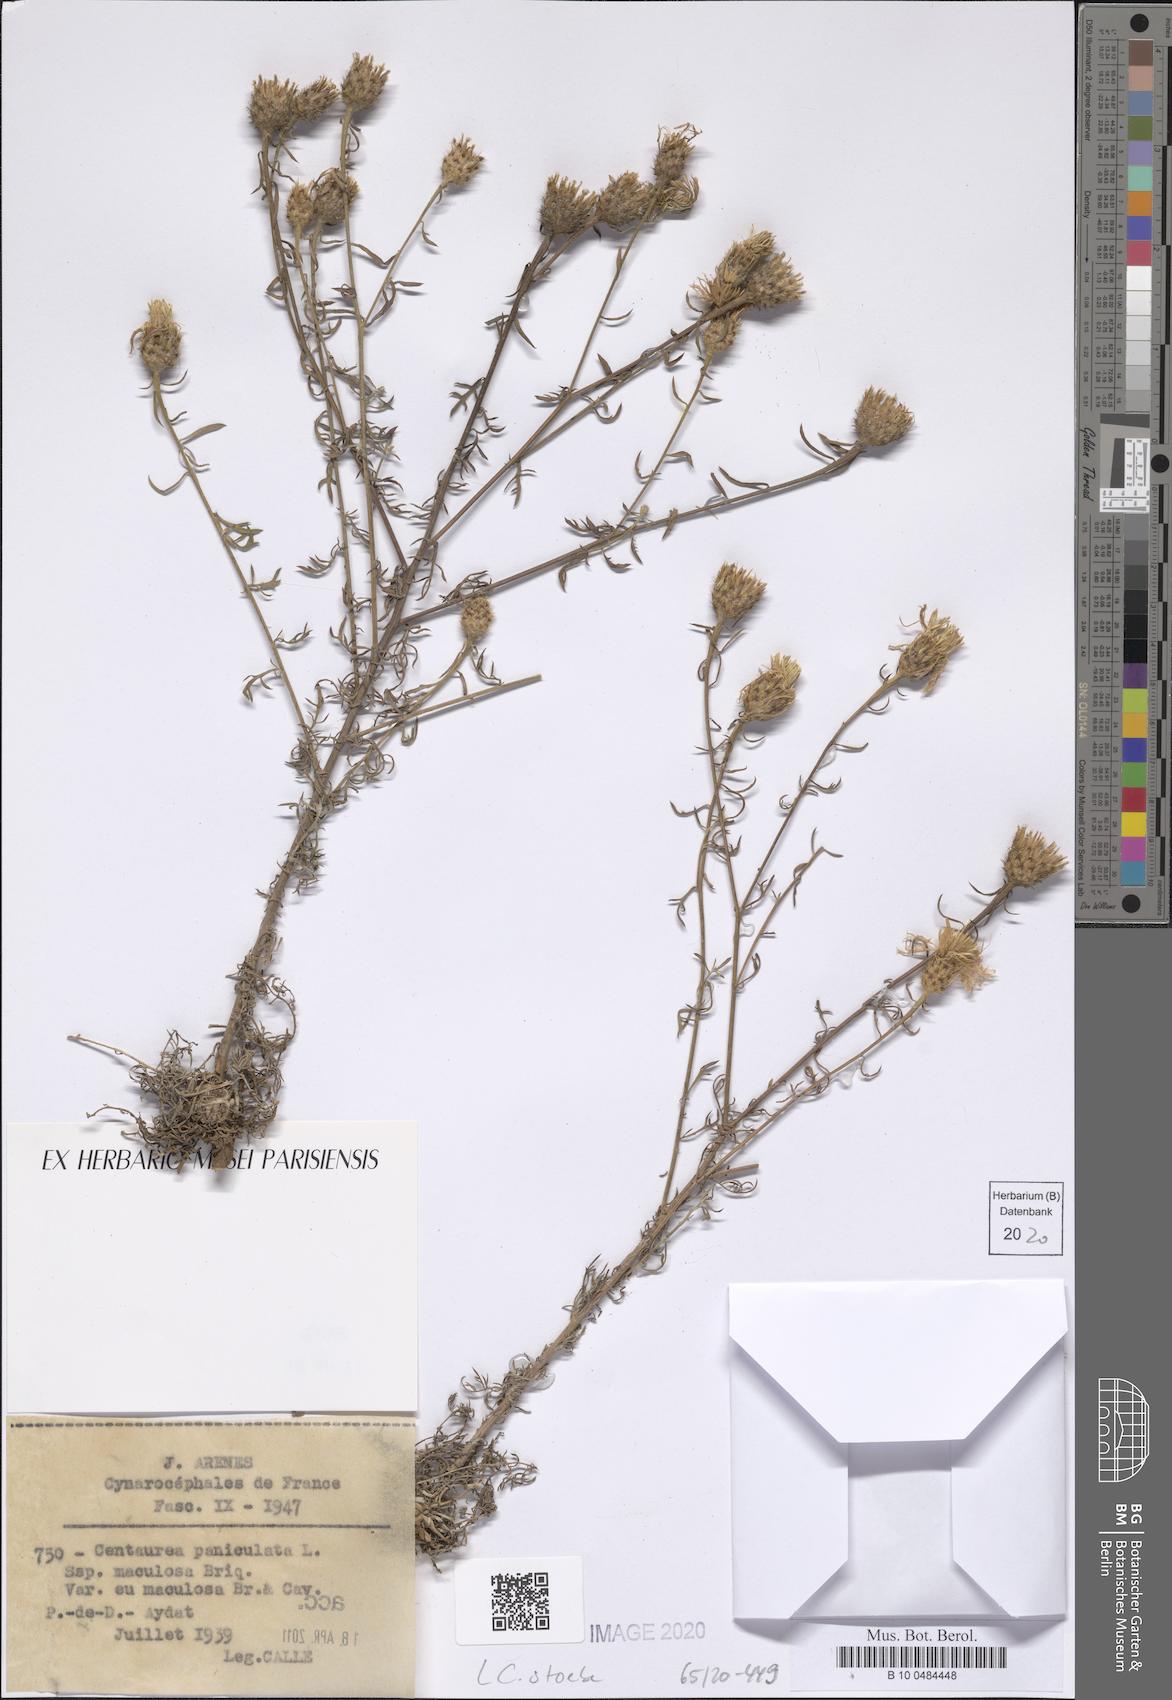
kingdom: Plantae
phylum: Tracheophyta
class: Magnoliopsida
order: Asterales
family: Asteraceae
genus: Centaurea
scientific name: Centaurea stoebe
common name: Spotted knapweed
